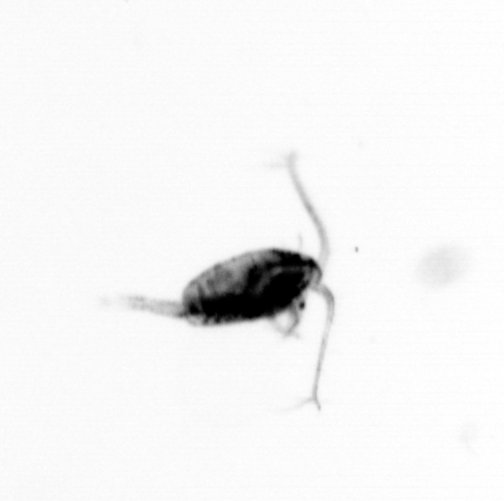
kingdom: Animalia
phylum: Arthropoda
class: Copepoda
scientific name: Copepoda
